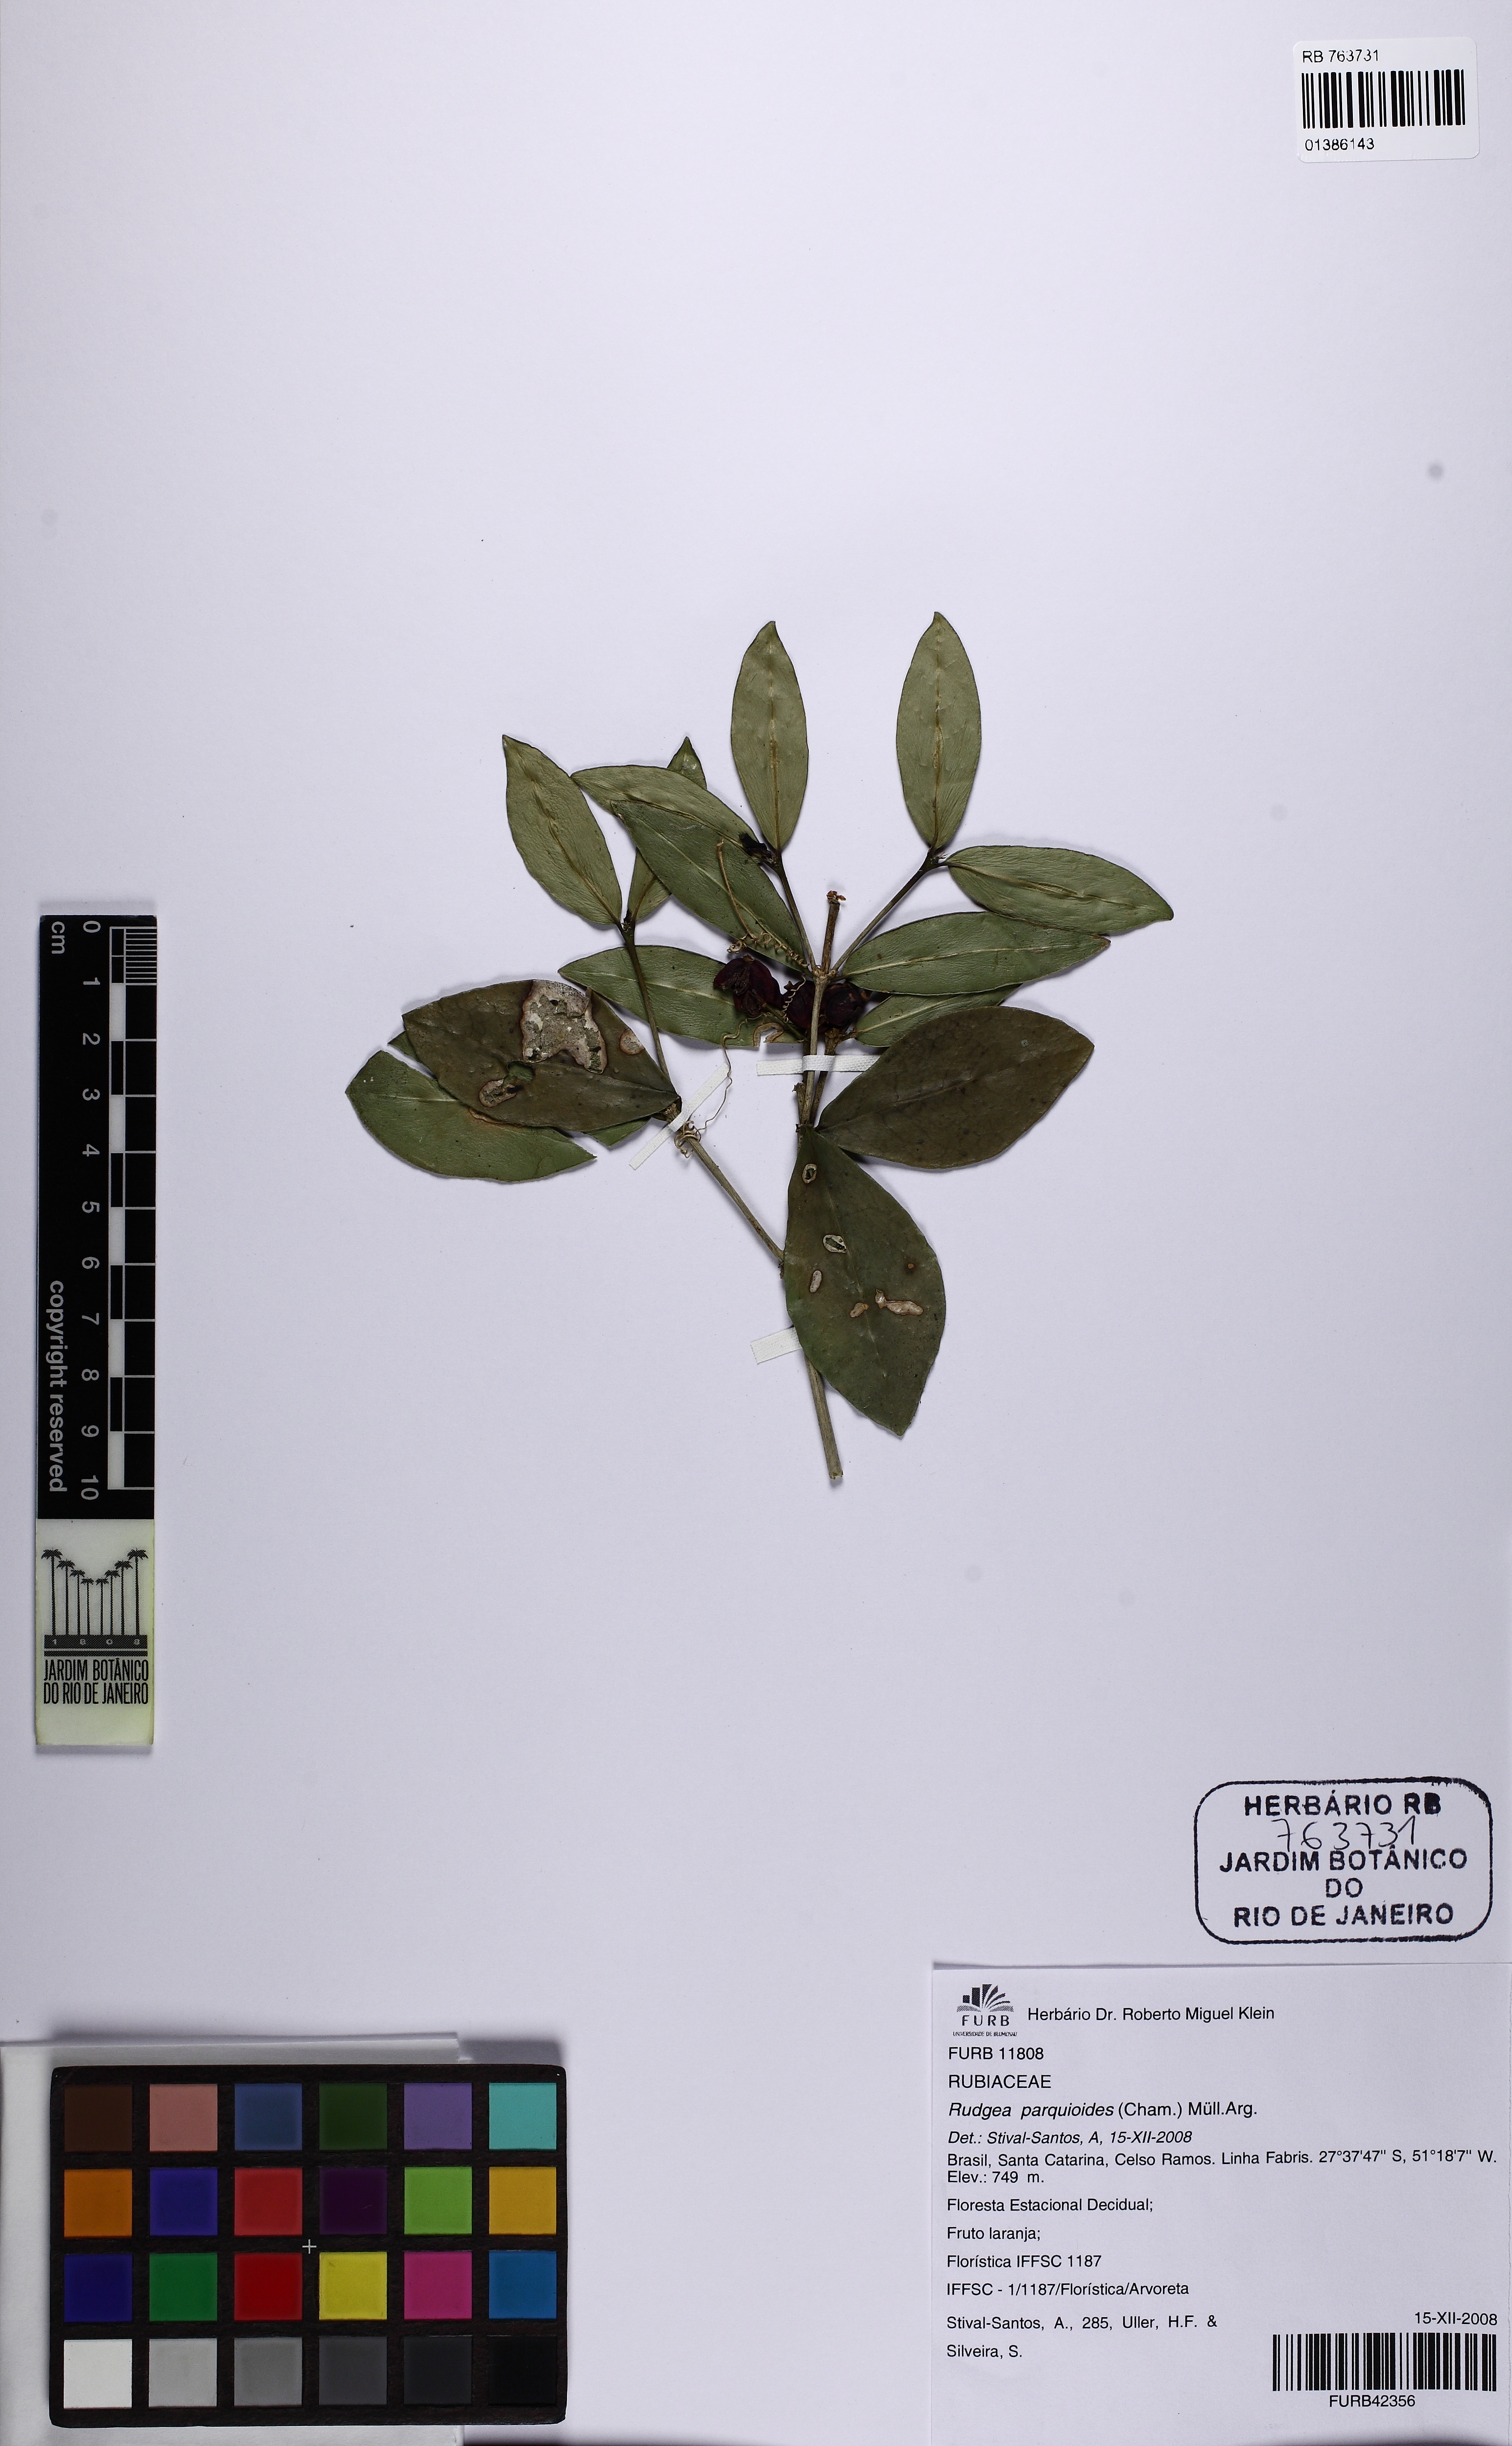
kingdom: Plantae
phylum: Tracheophyta
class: Magnoliopsida
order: Gentianales
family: Rubiaceae
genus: Rudgea
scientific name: Rudgea parquioides
